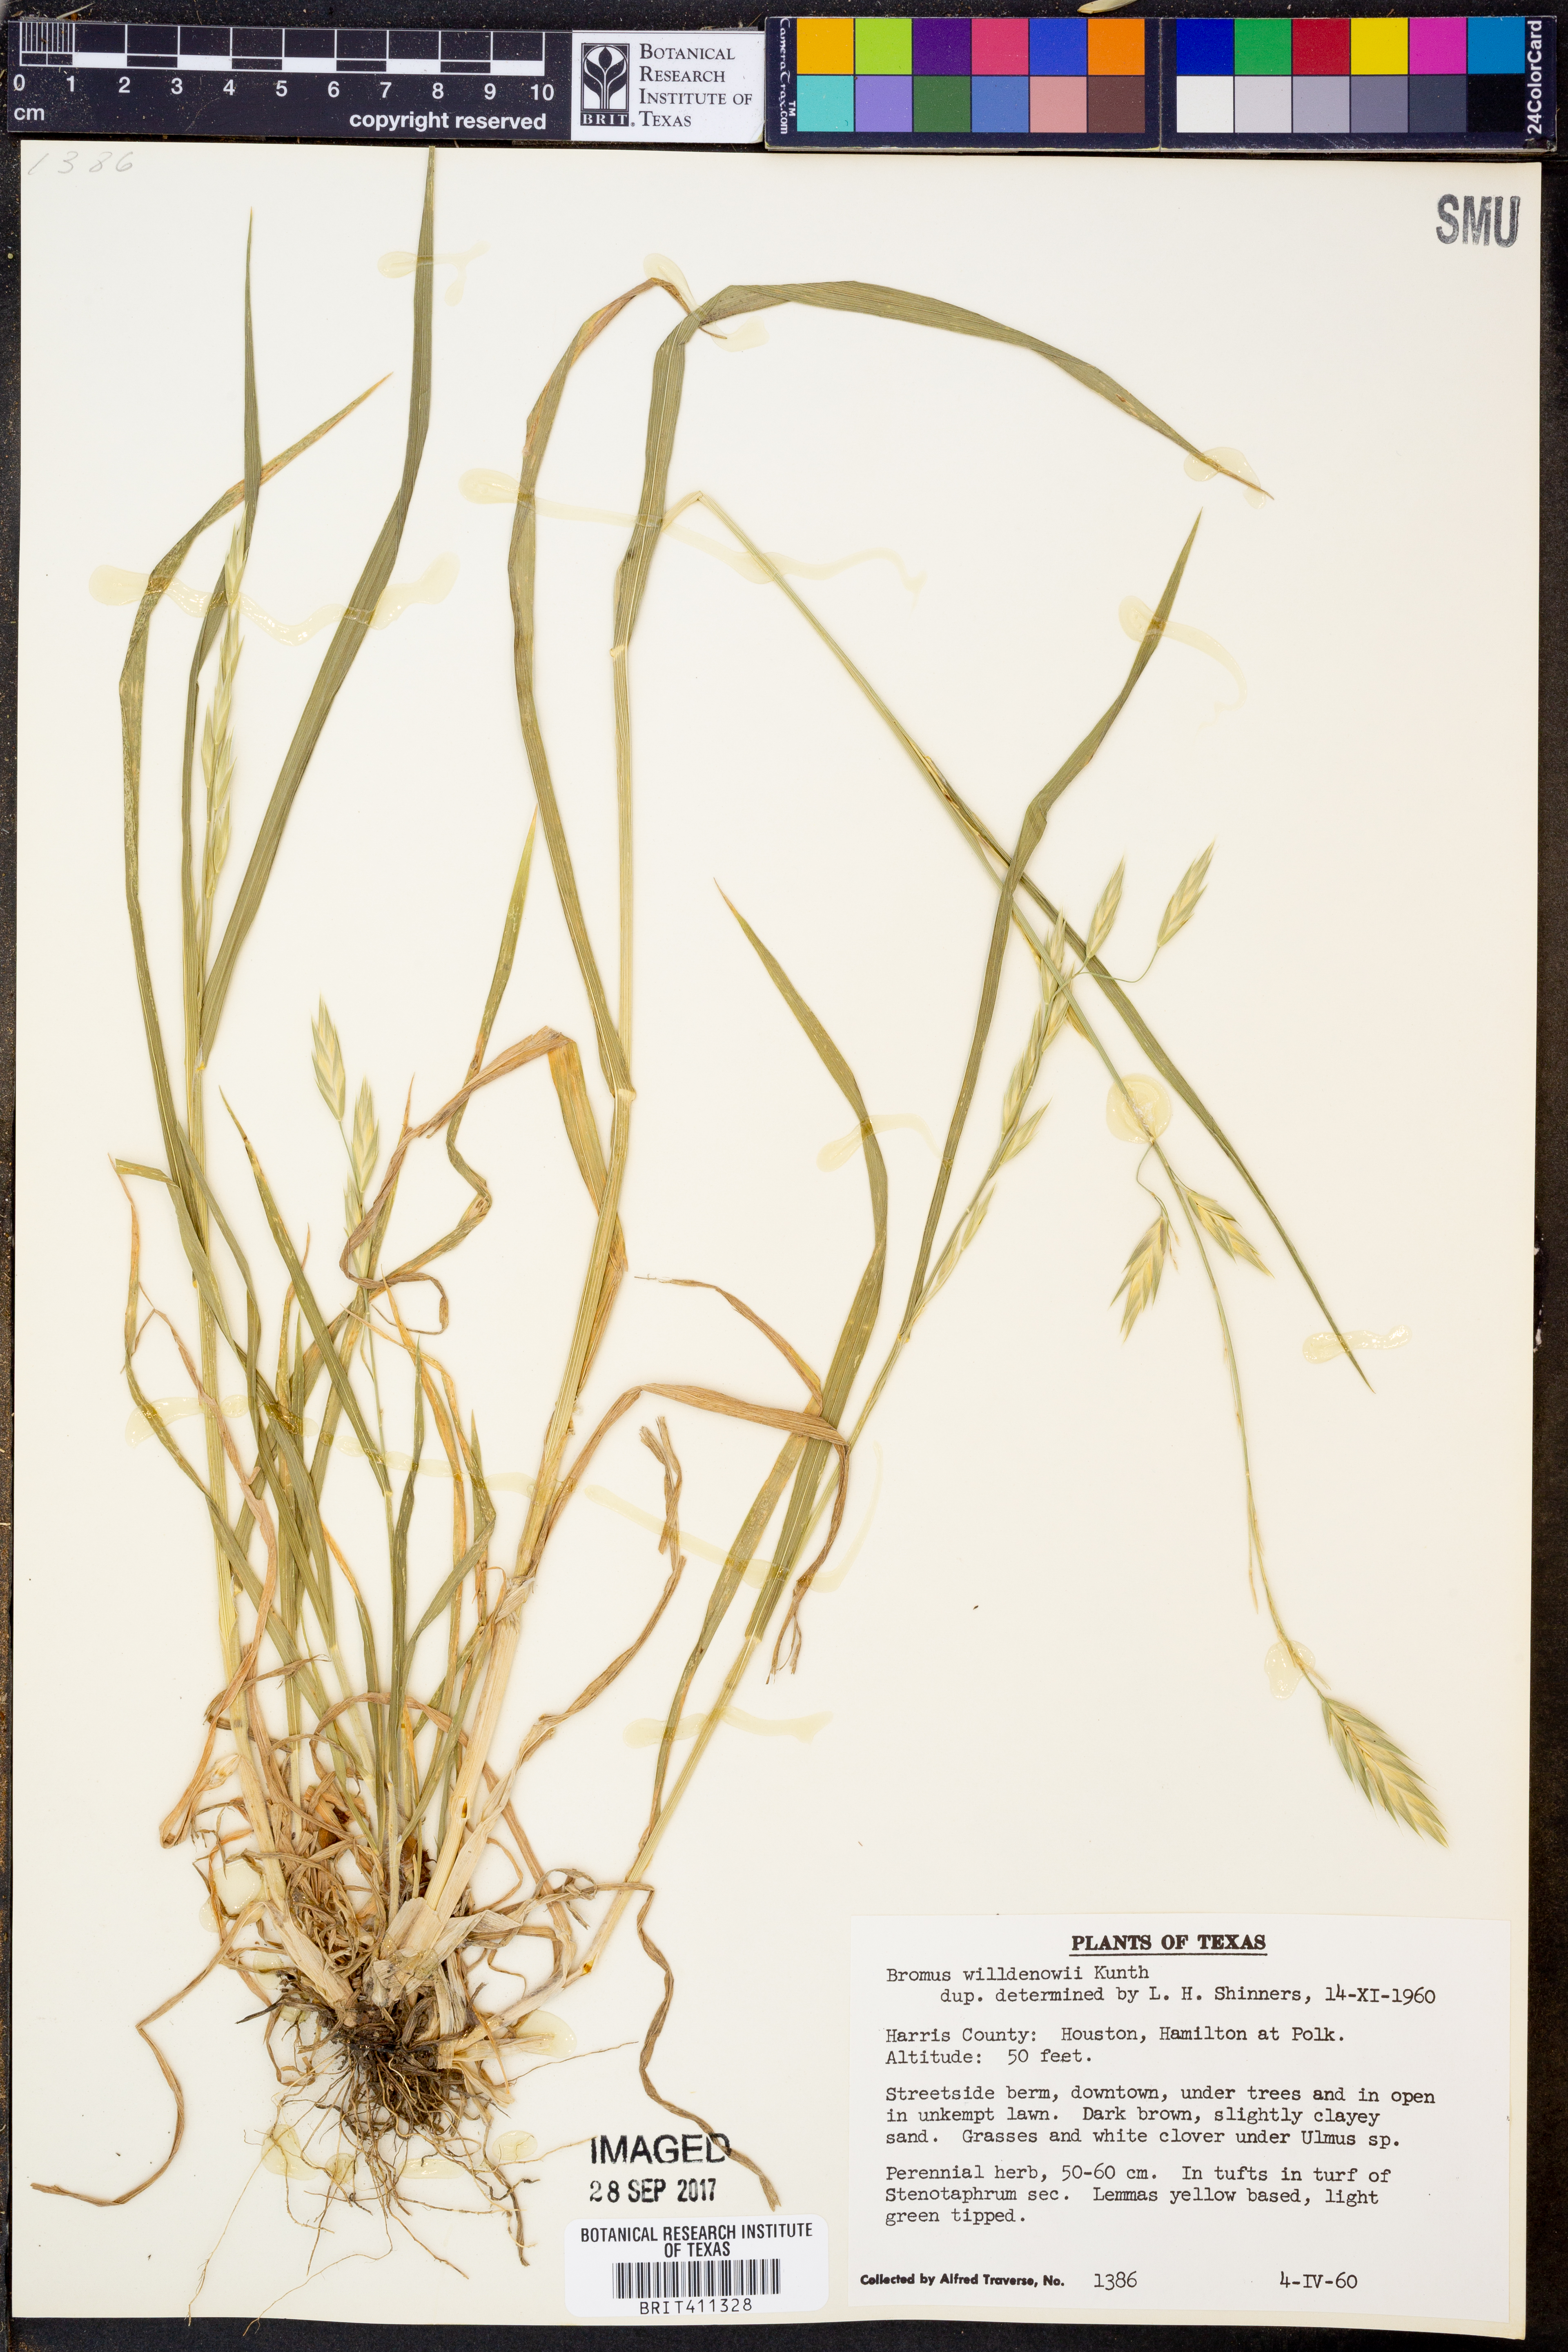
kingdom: Plantae
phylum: Tracheophyta
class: Liliopsida
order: Poales
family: Poaceae
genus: Bromus
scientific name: Bromus catharticus
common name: Rescuegrass
